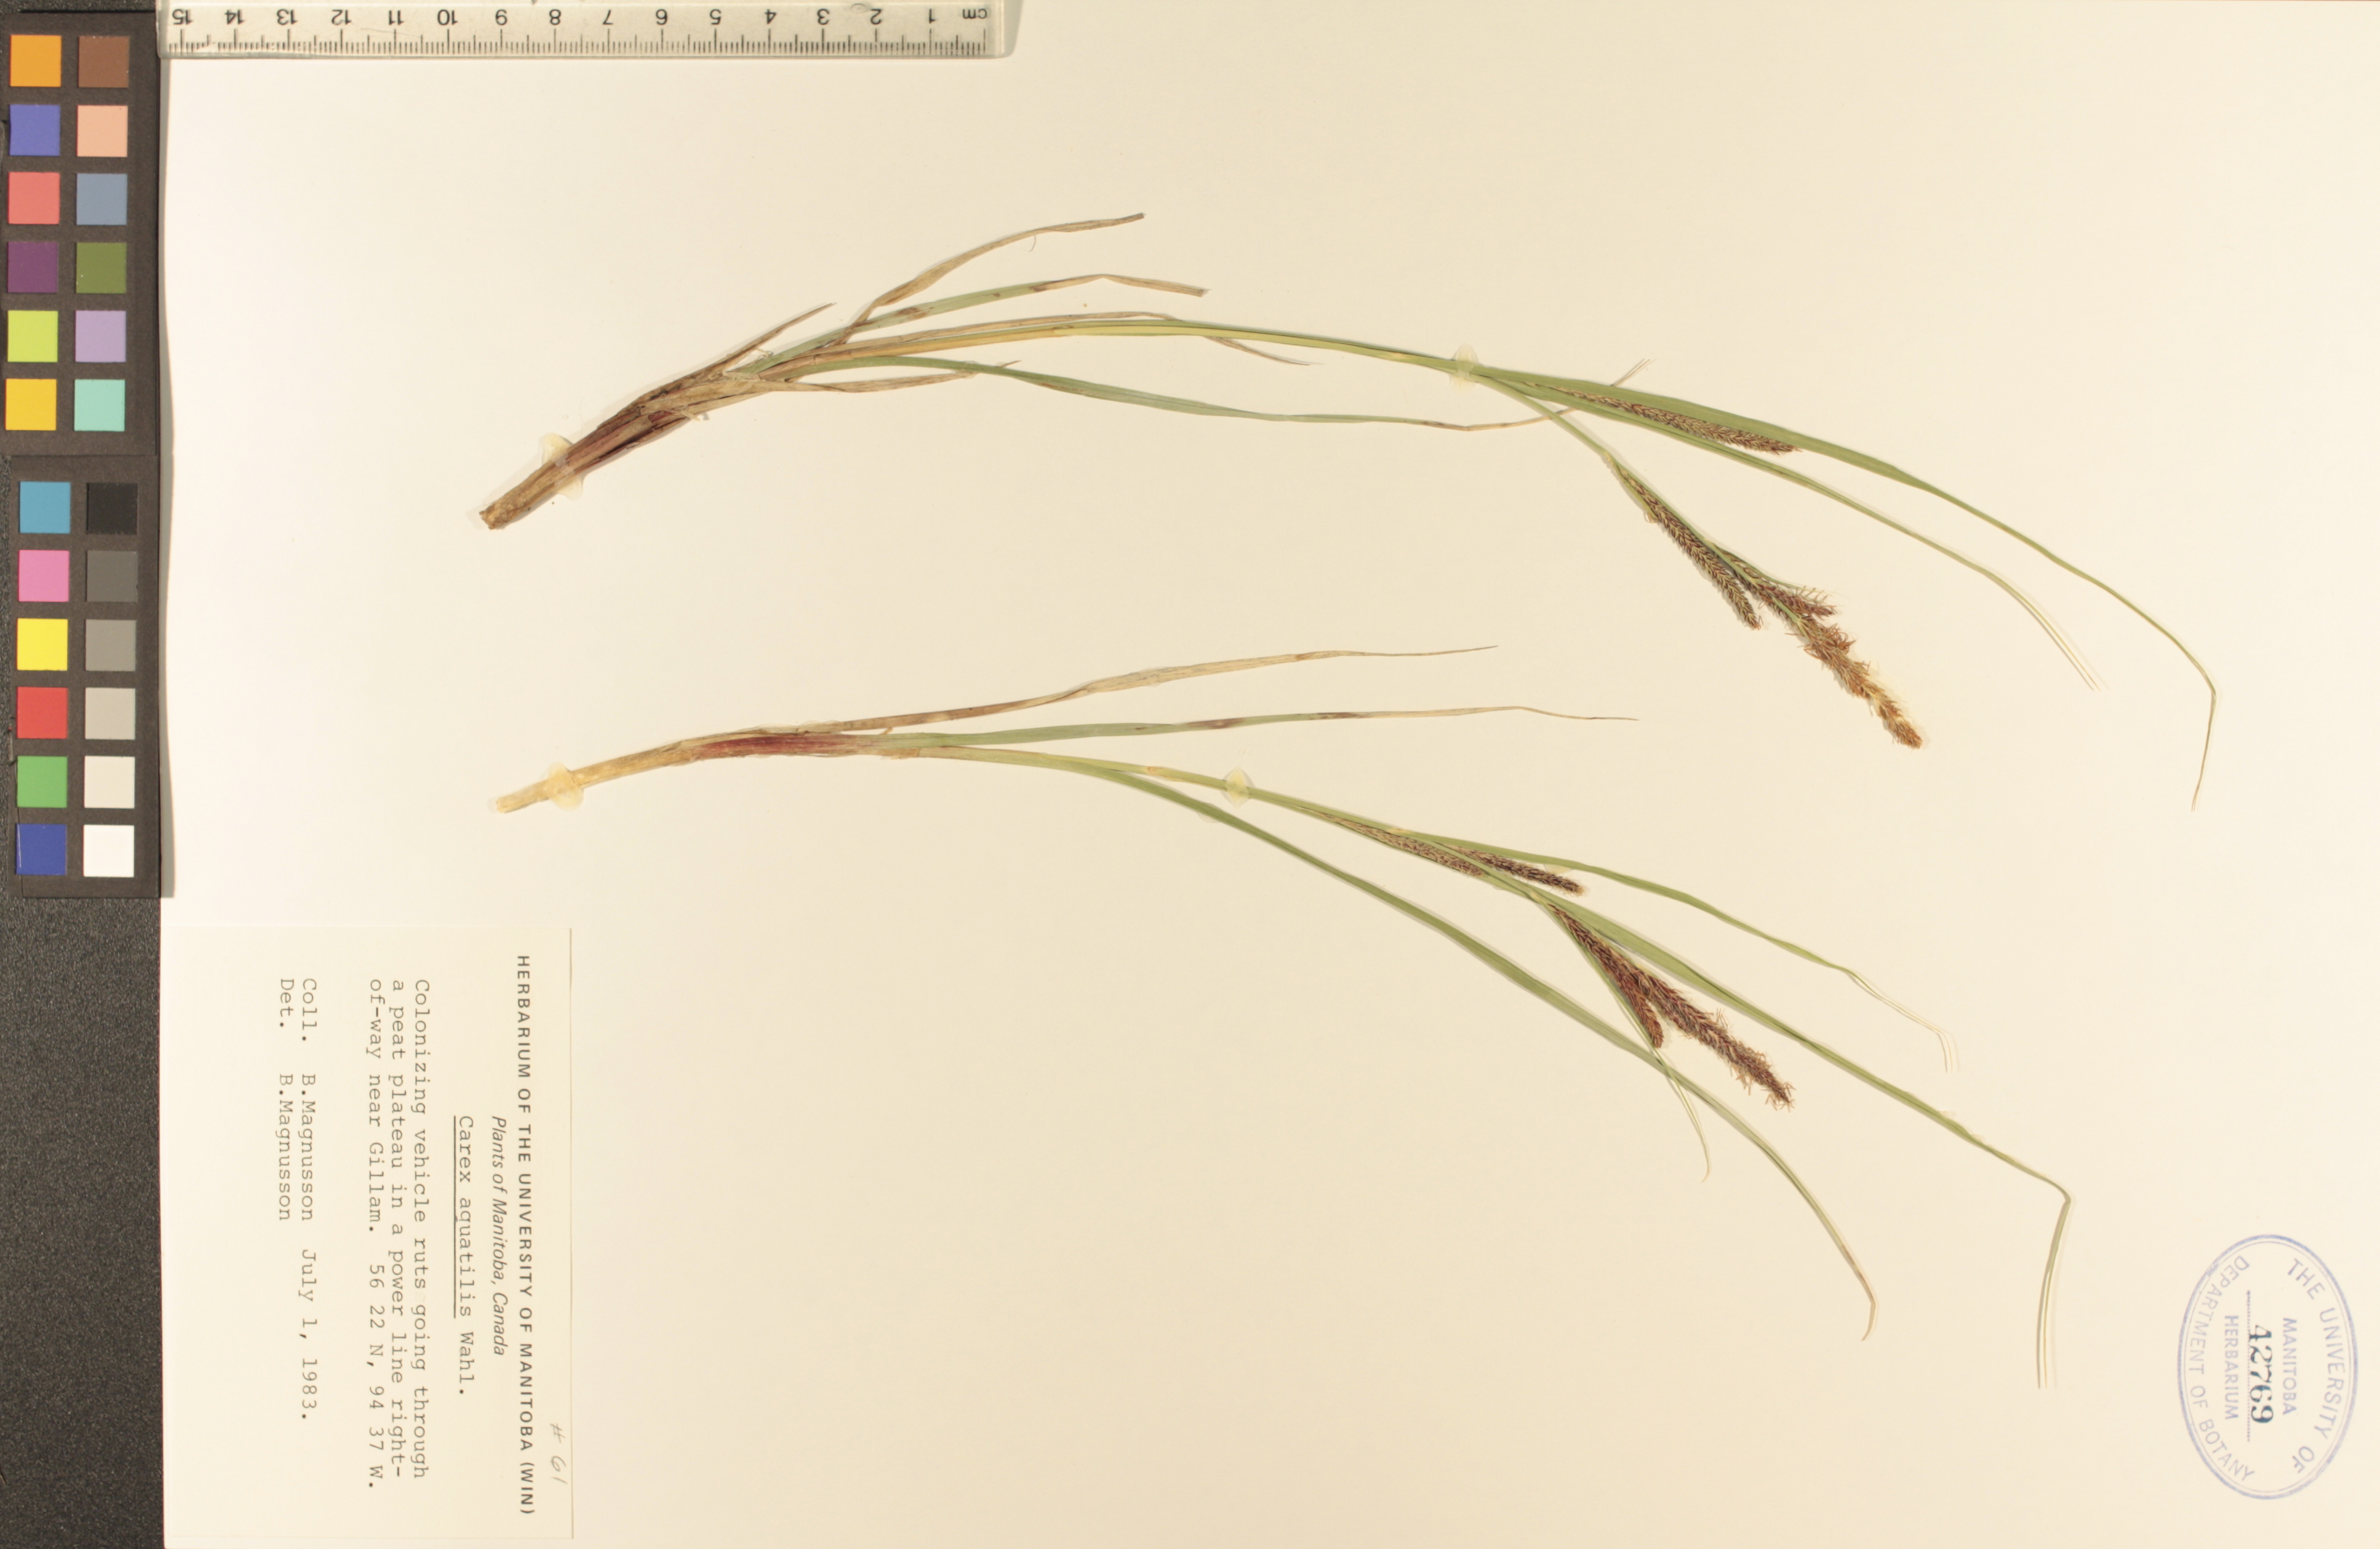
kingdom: Plantae
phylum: Tracheophyta
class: Liliopsida
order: Poales
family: Cyperaceae
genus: Carex
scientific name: Carex aquatilis
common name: Water sedge
